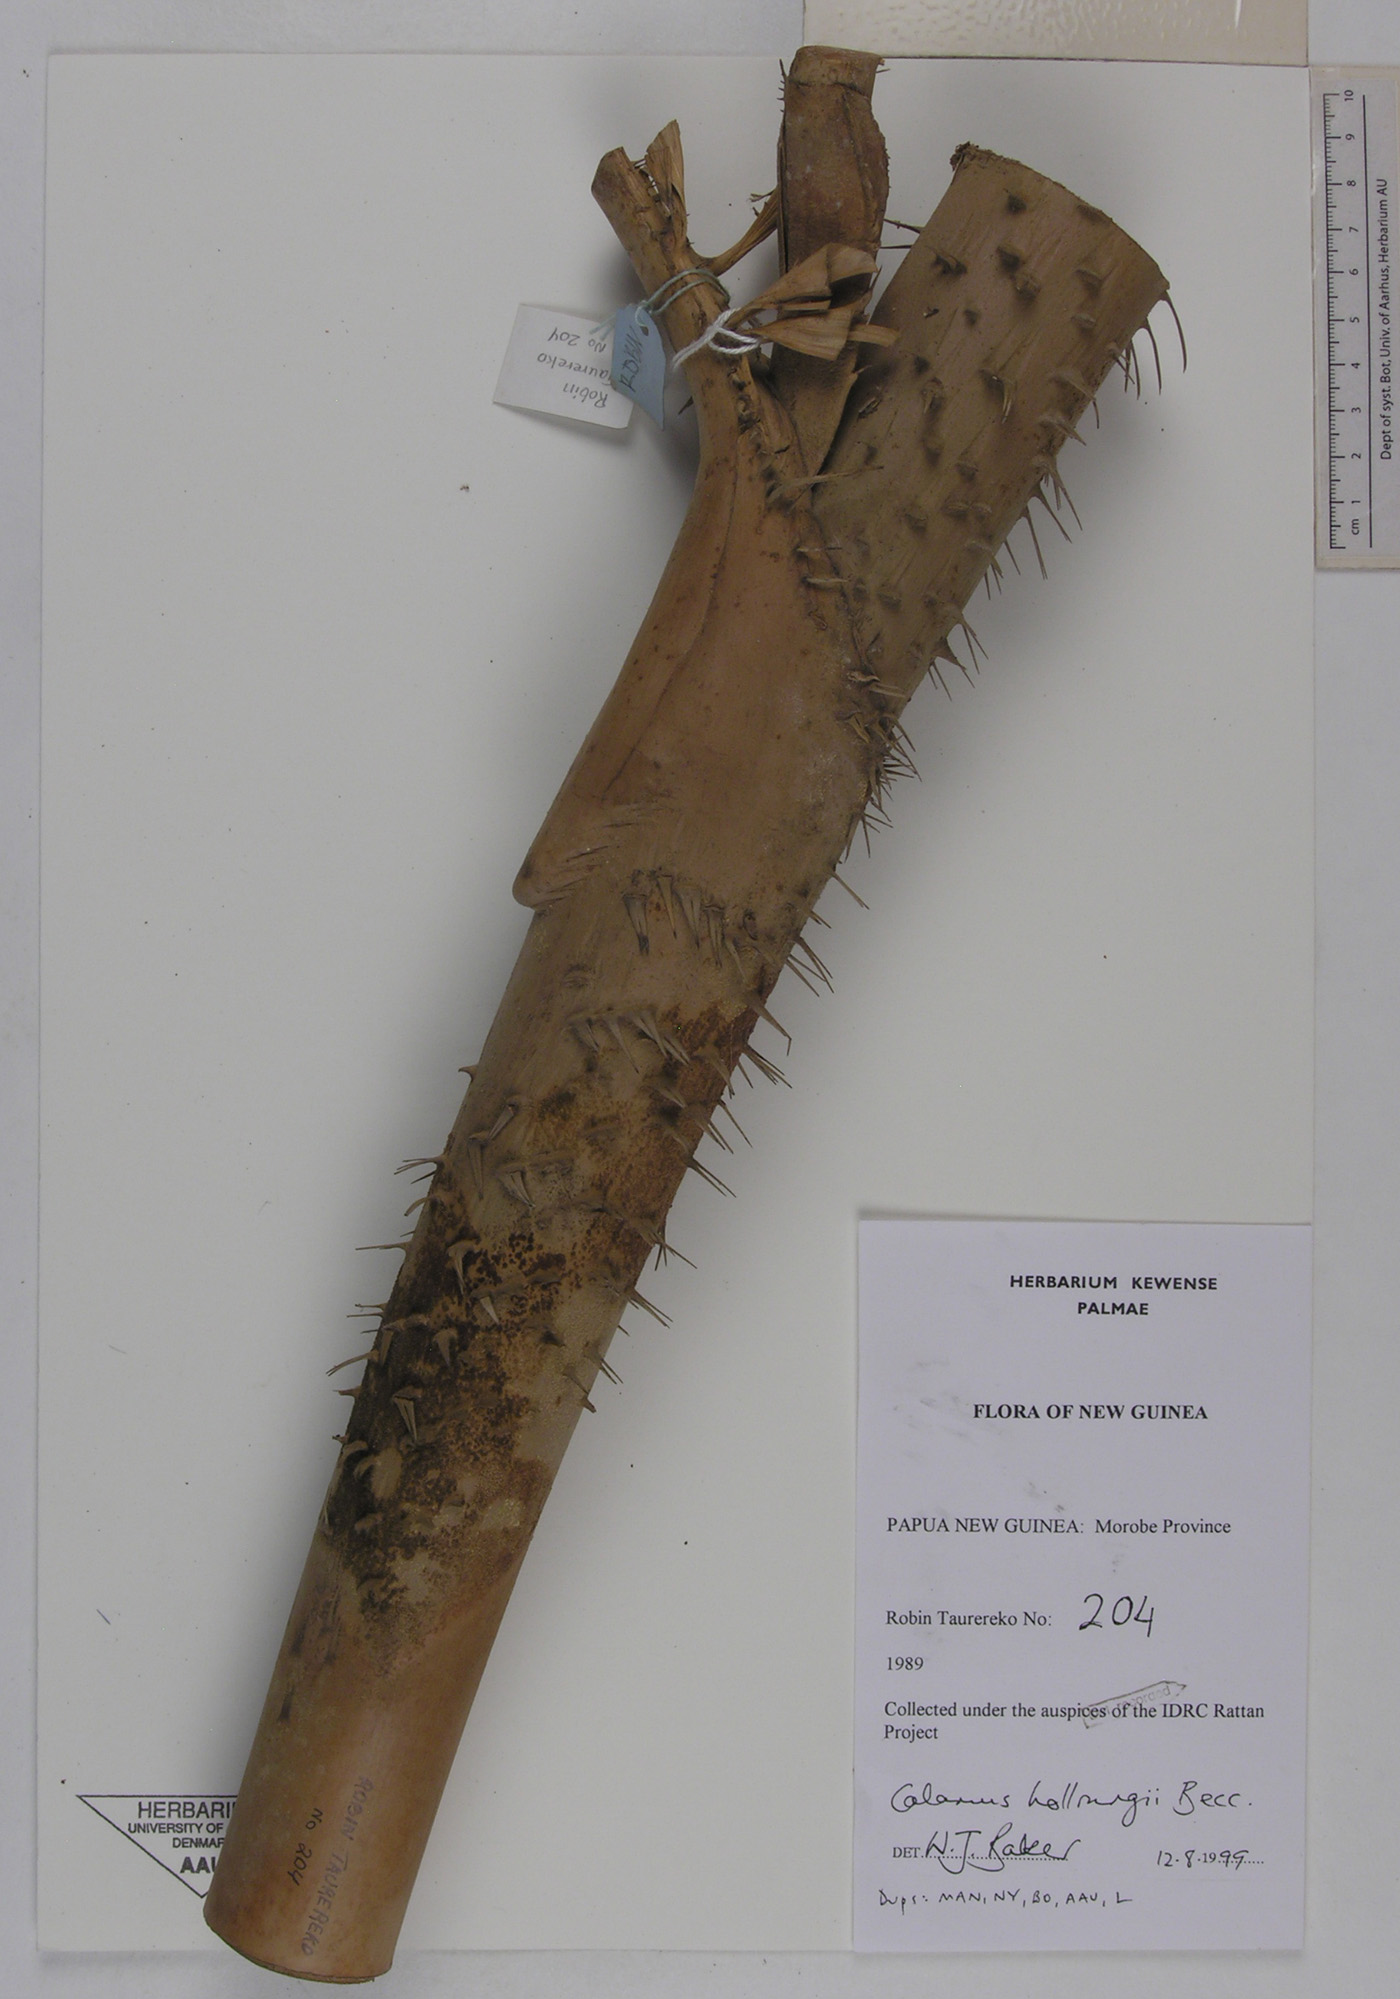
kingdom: Plantae
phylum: Tracheophyta
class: Liliopsida
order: Arecales
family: Arecaceae
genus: Calamus
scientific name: Calamus aruensis
